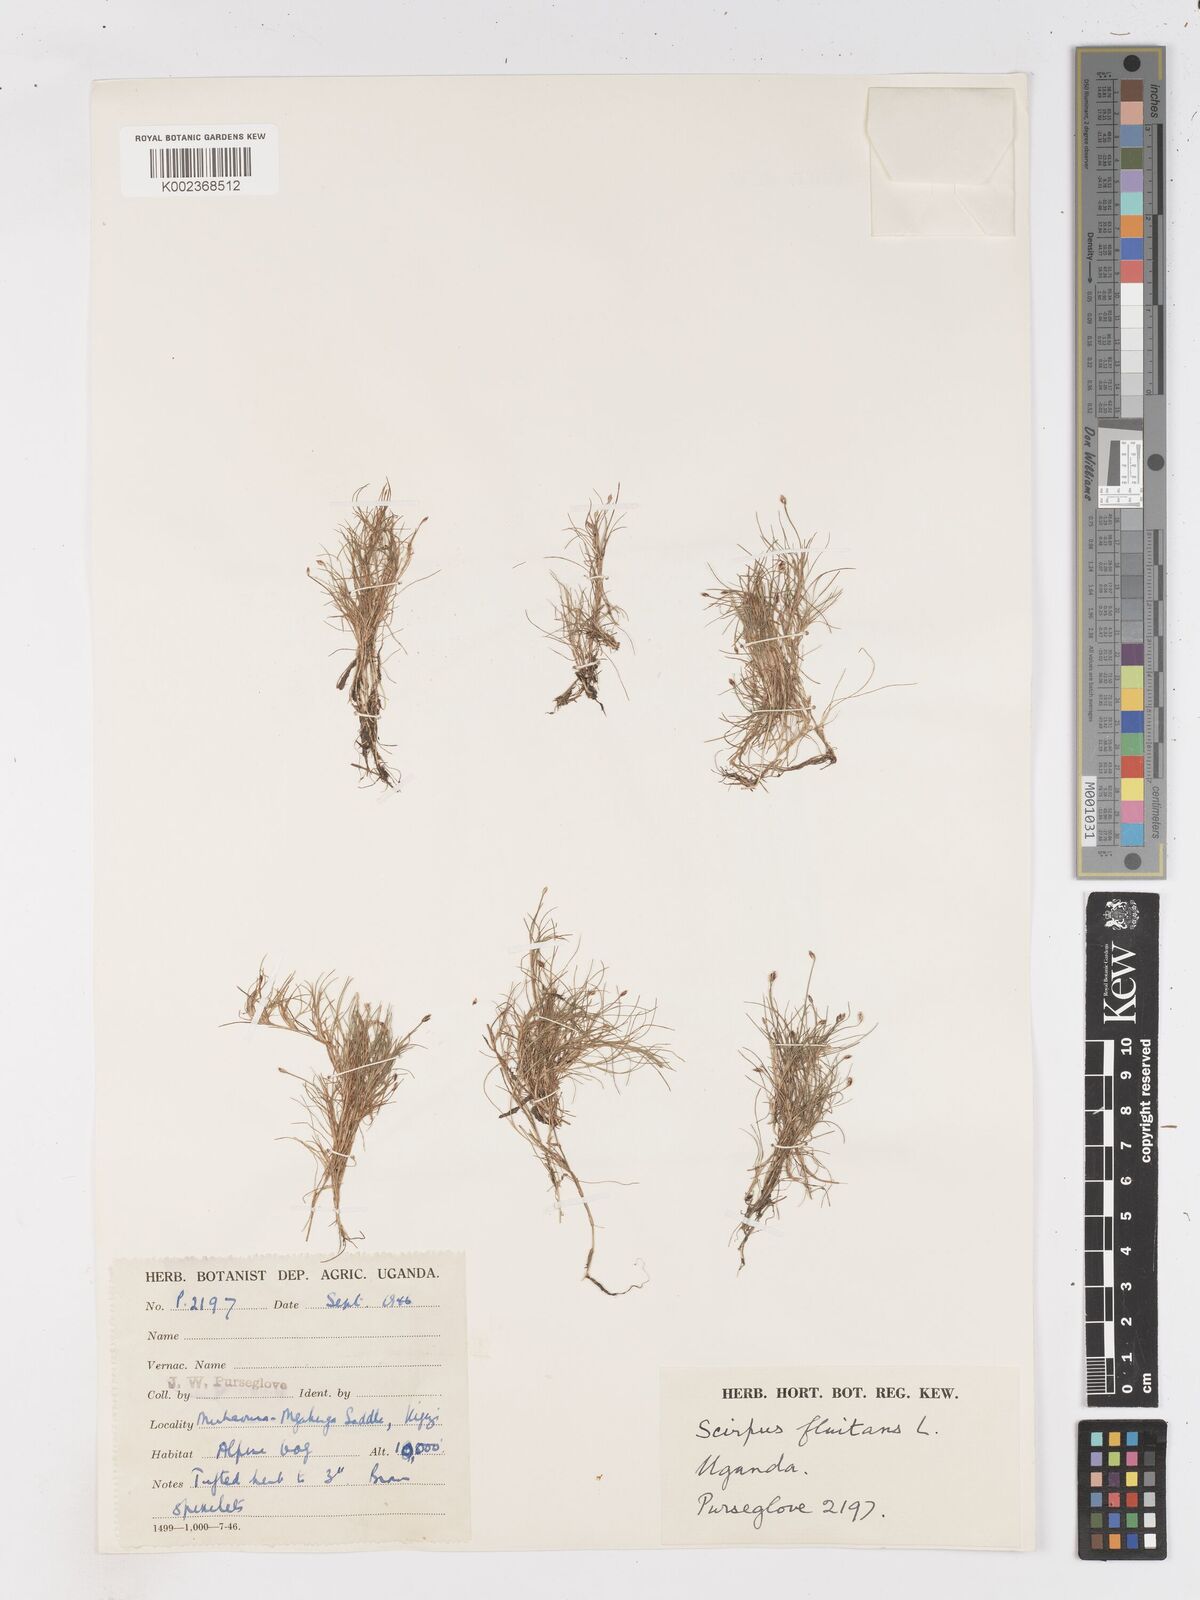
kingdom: Plantae
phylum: Tracheophyta
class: Liliopsida
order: Poales
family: Cyperaceae
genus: Isolepis
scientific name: Isolepis fluitans
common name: Floating club-rush
